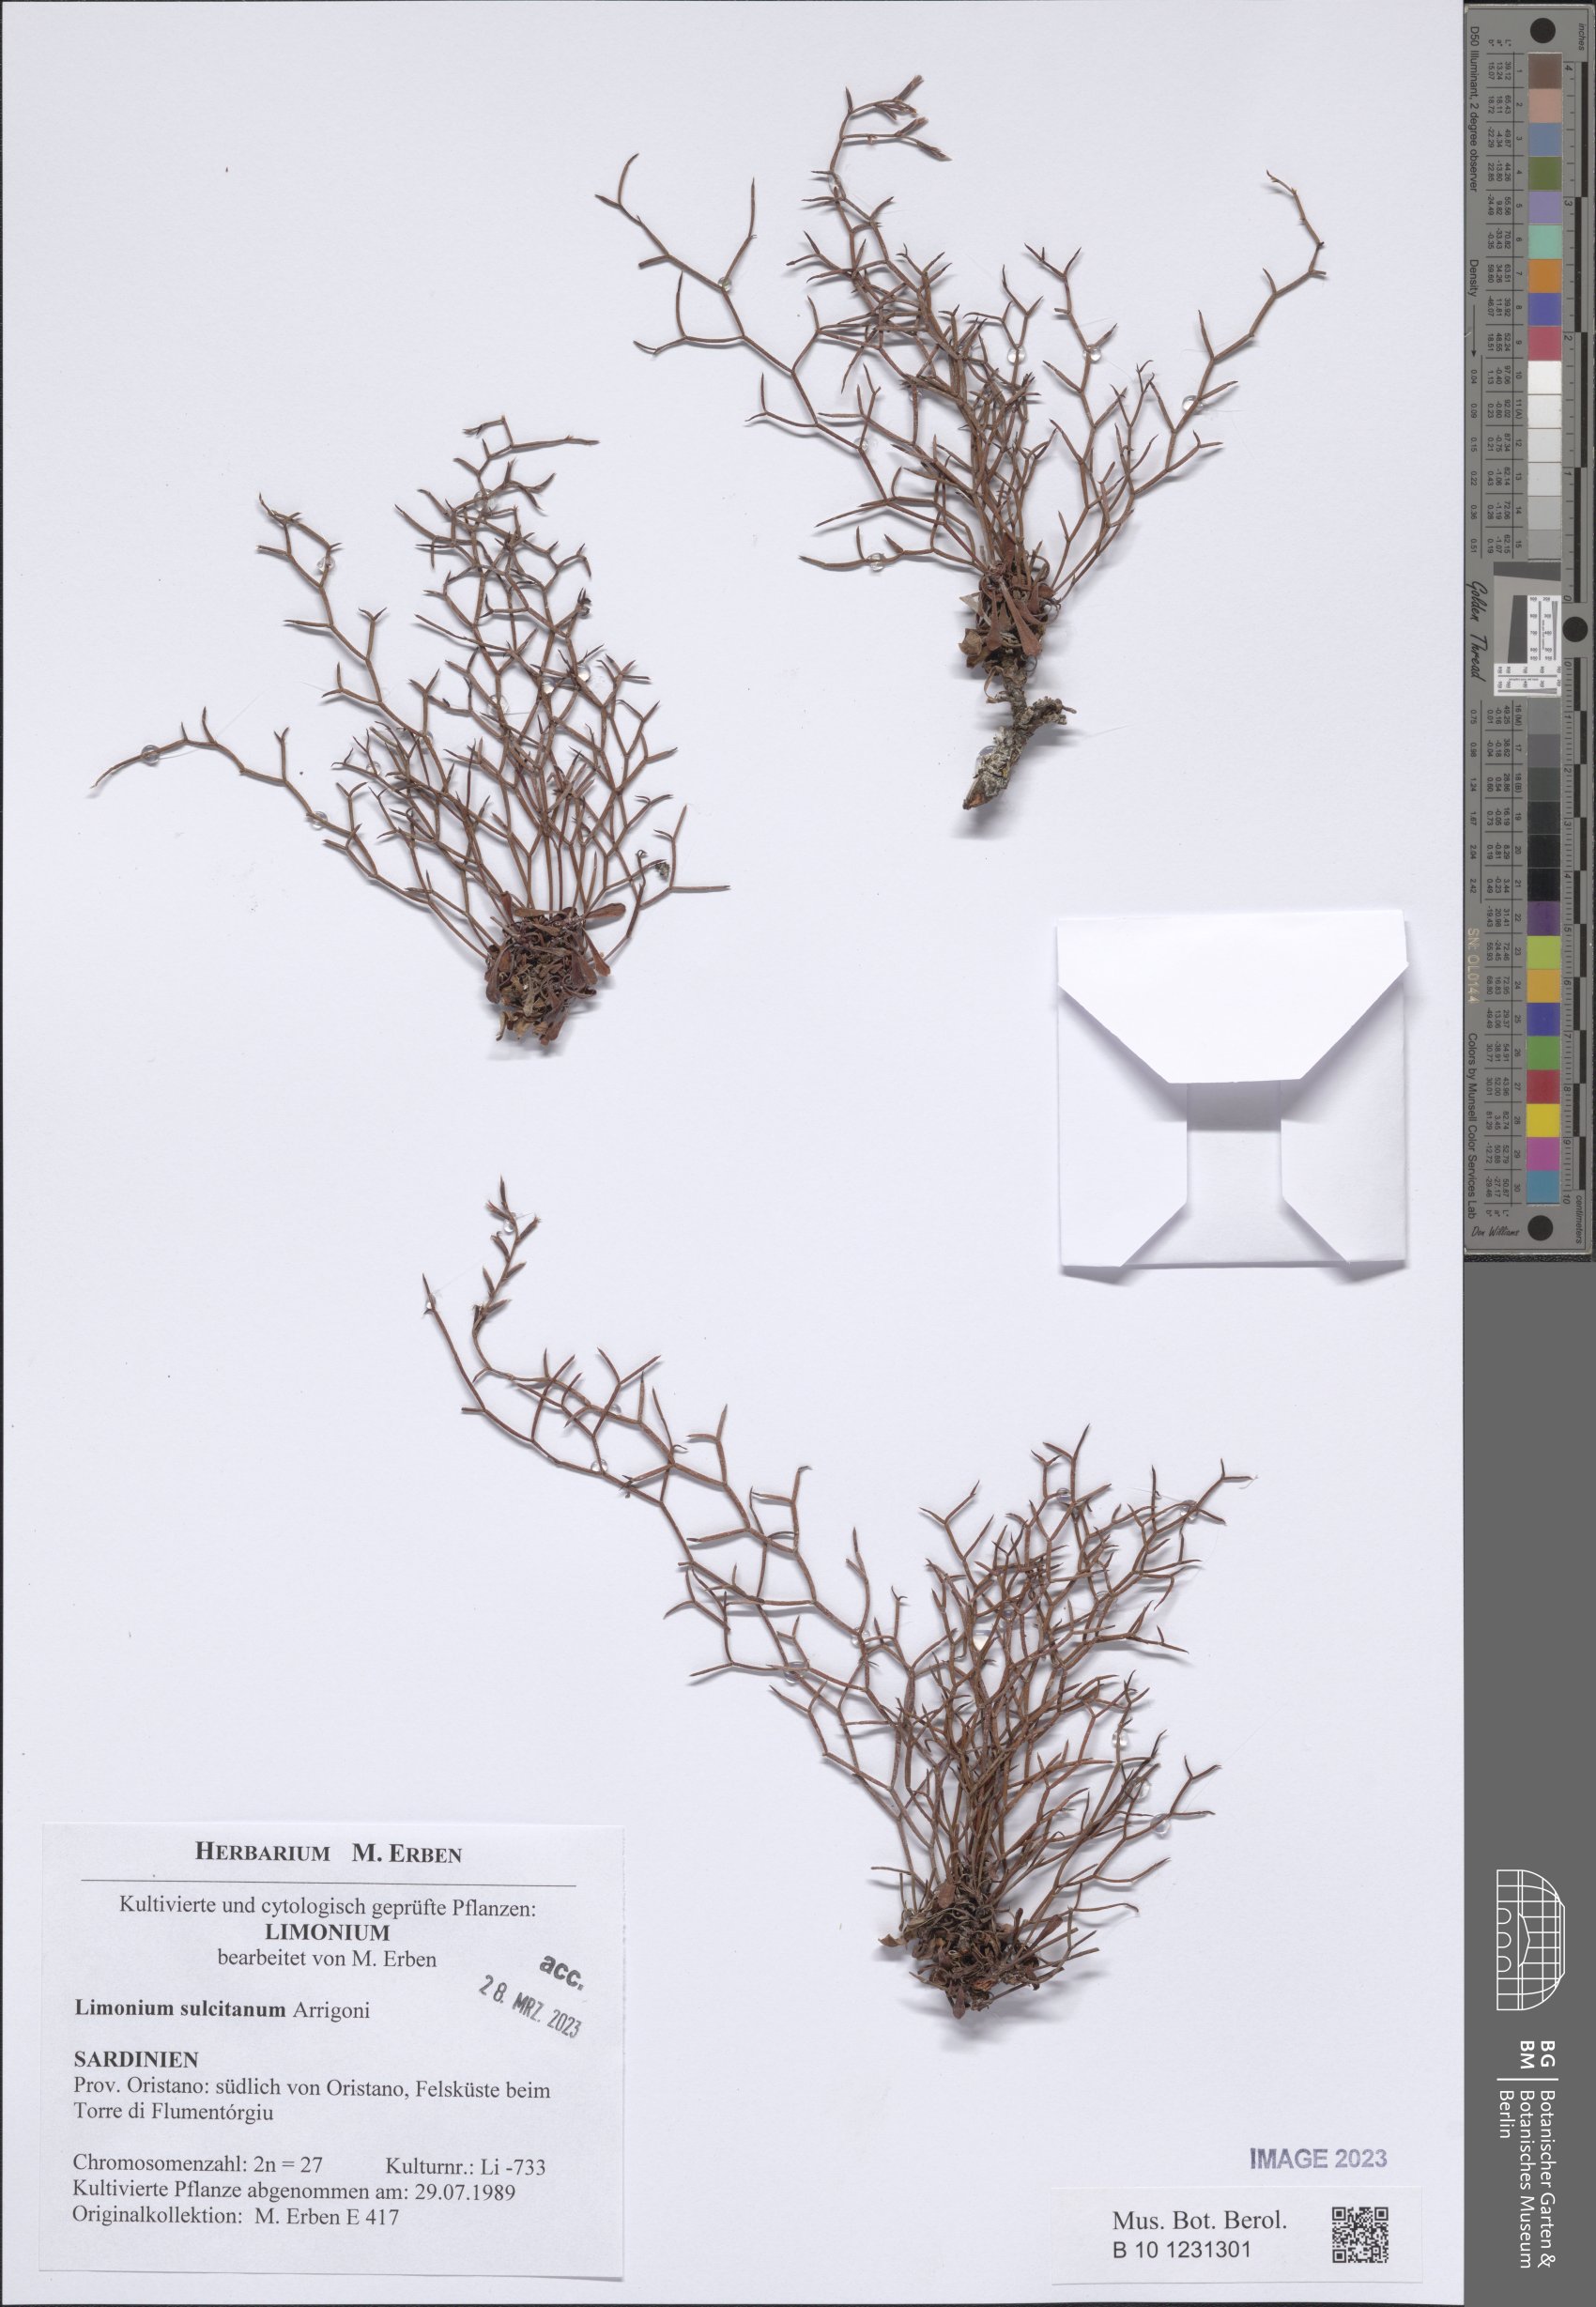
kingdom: Plantae
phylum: Tracheophyta
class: Magnoliopsida
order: Caryophyllales
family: Plumbaginaceae
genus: Limonium
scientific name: Limonium sulcitanum
